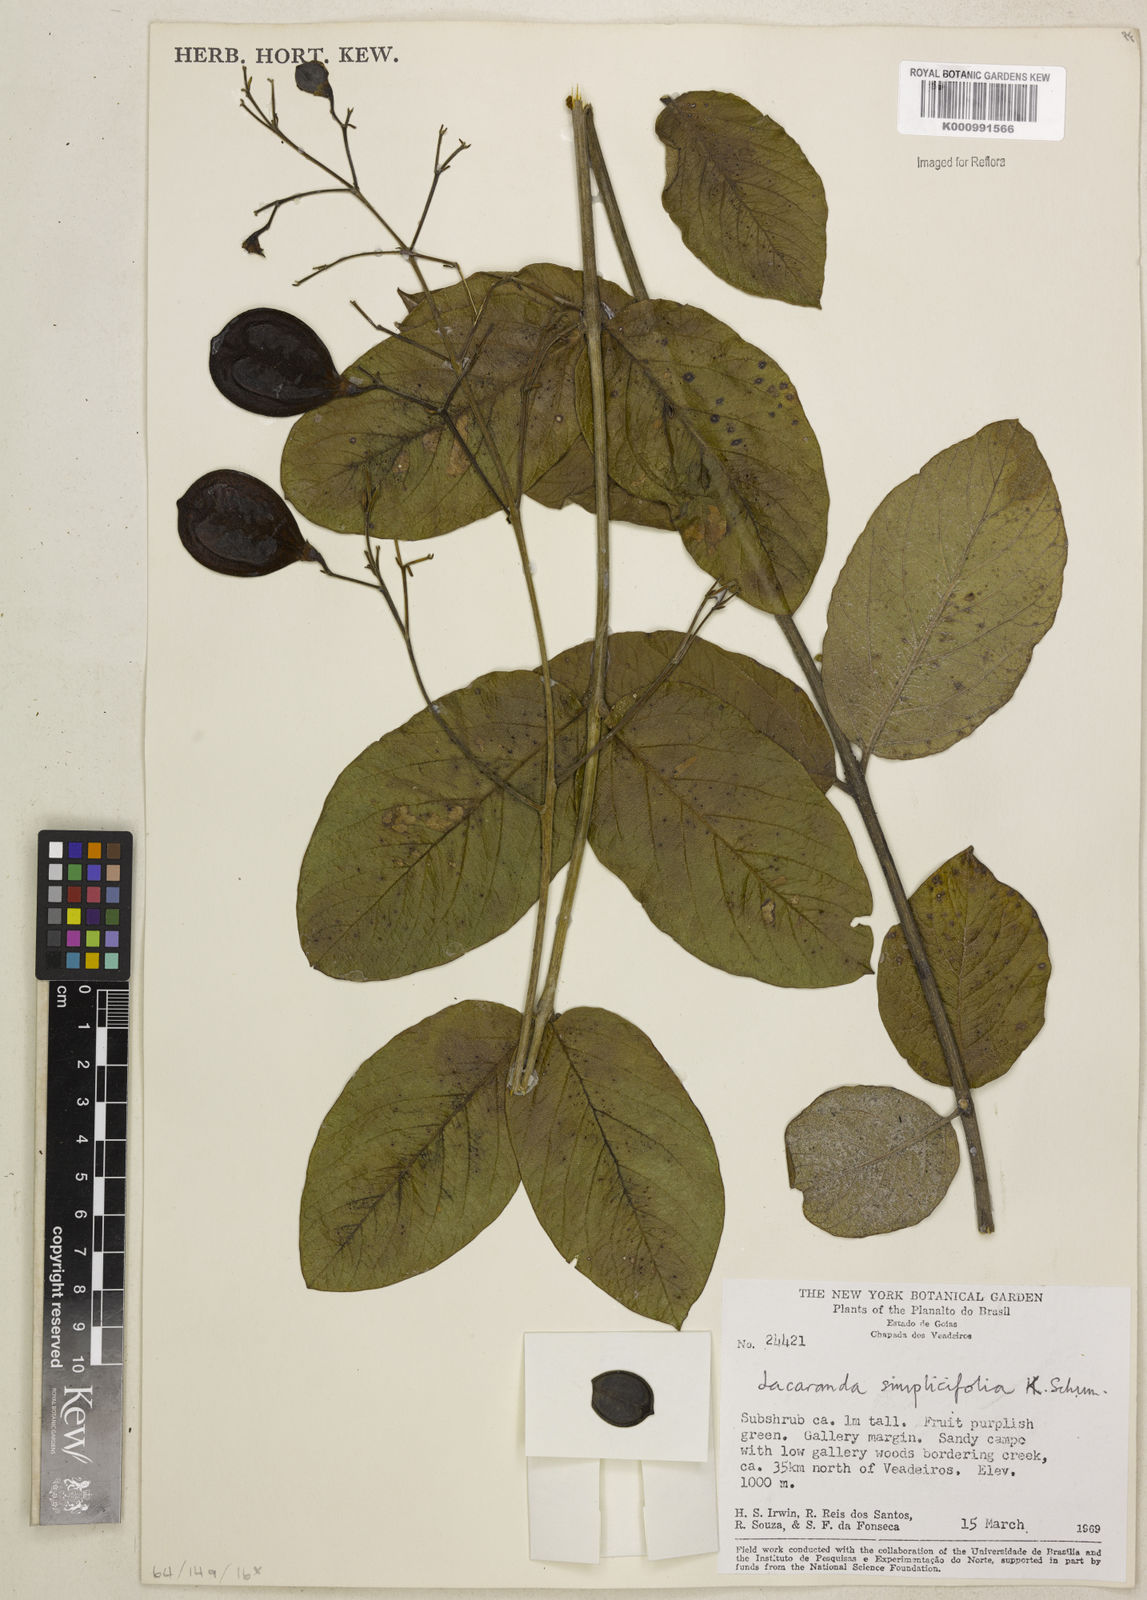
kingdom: Plantae
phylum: Tracheophyta
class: Magnoliopsida
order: Lamiales
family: Bignoniaceae
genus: Jacaranda
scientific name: Jacaranda simplicifolia
